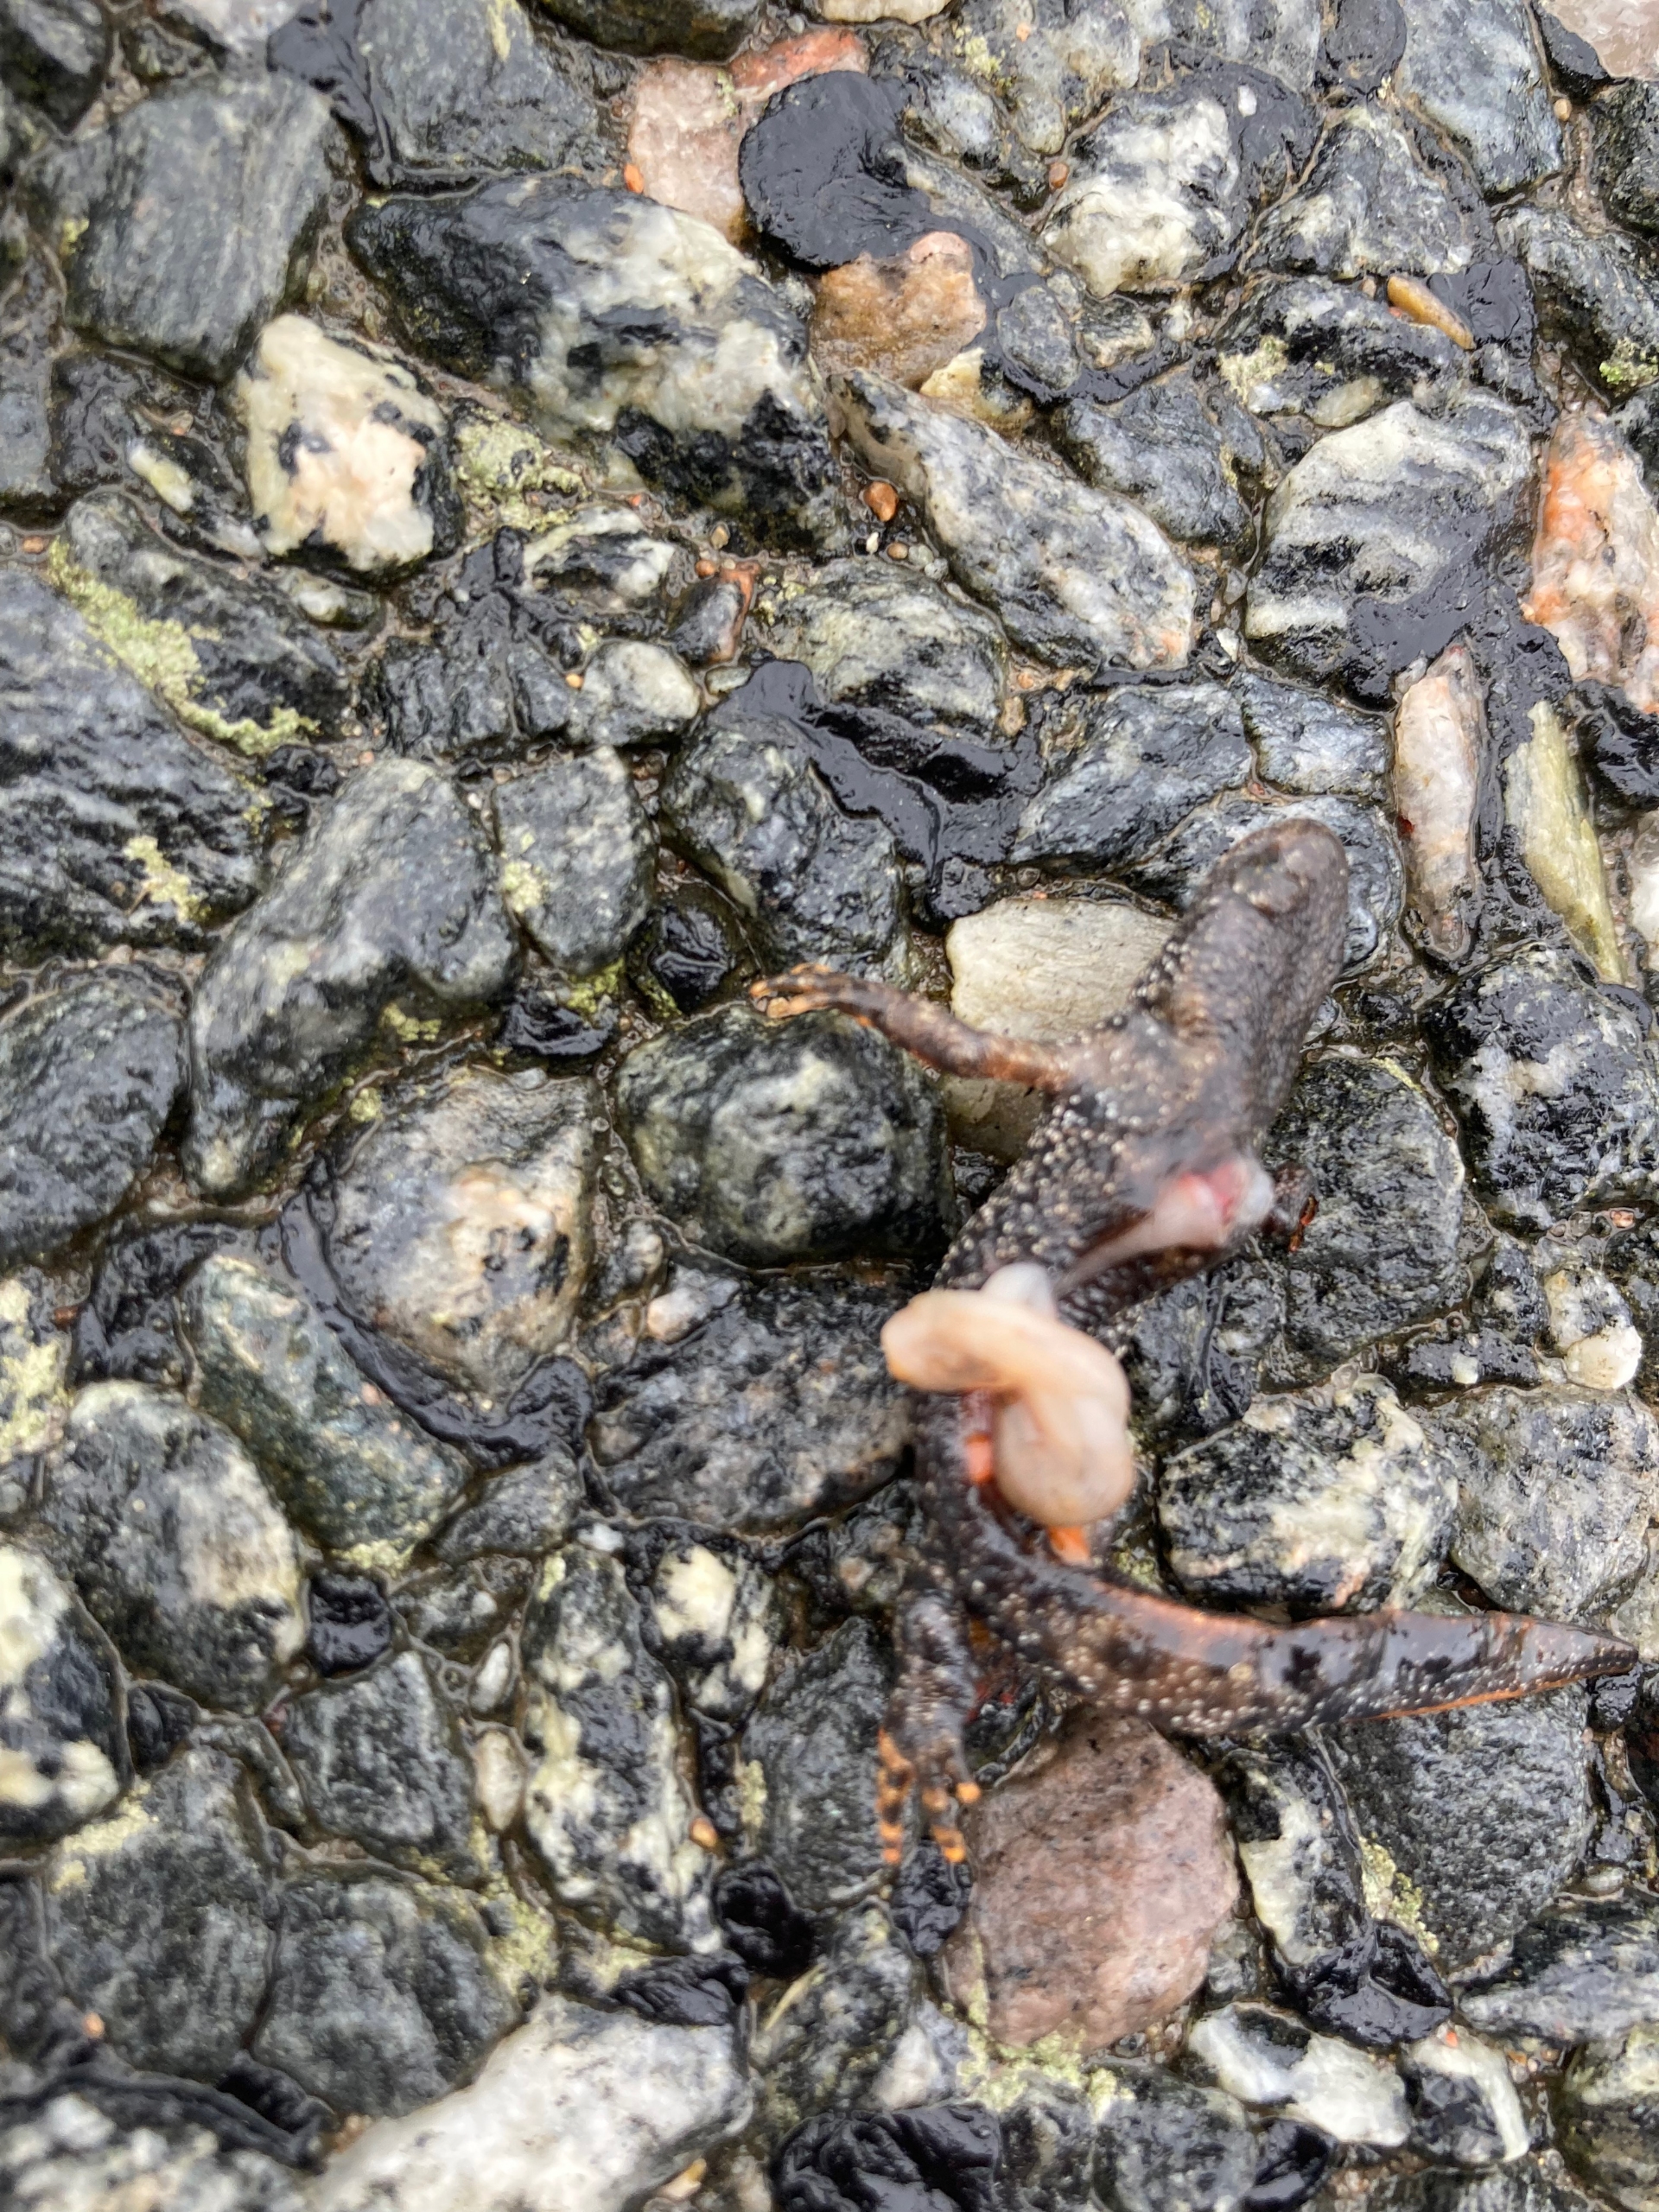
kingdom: Animalia
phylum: Chordata
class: Amphibia
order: Caudata
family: Salamandridae
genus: Triturus
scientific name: Triturus cristatus
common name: Stor vandsalamander
